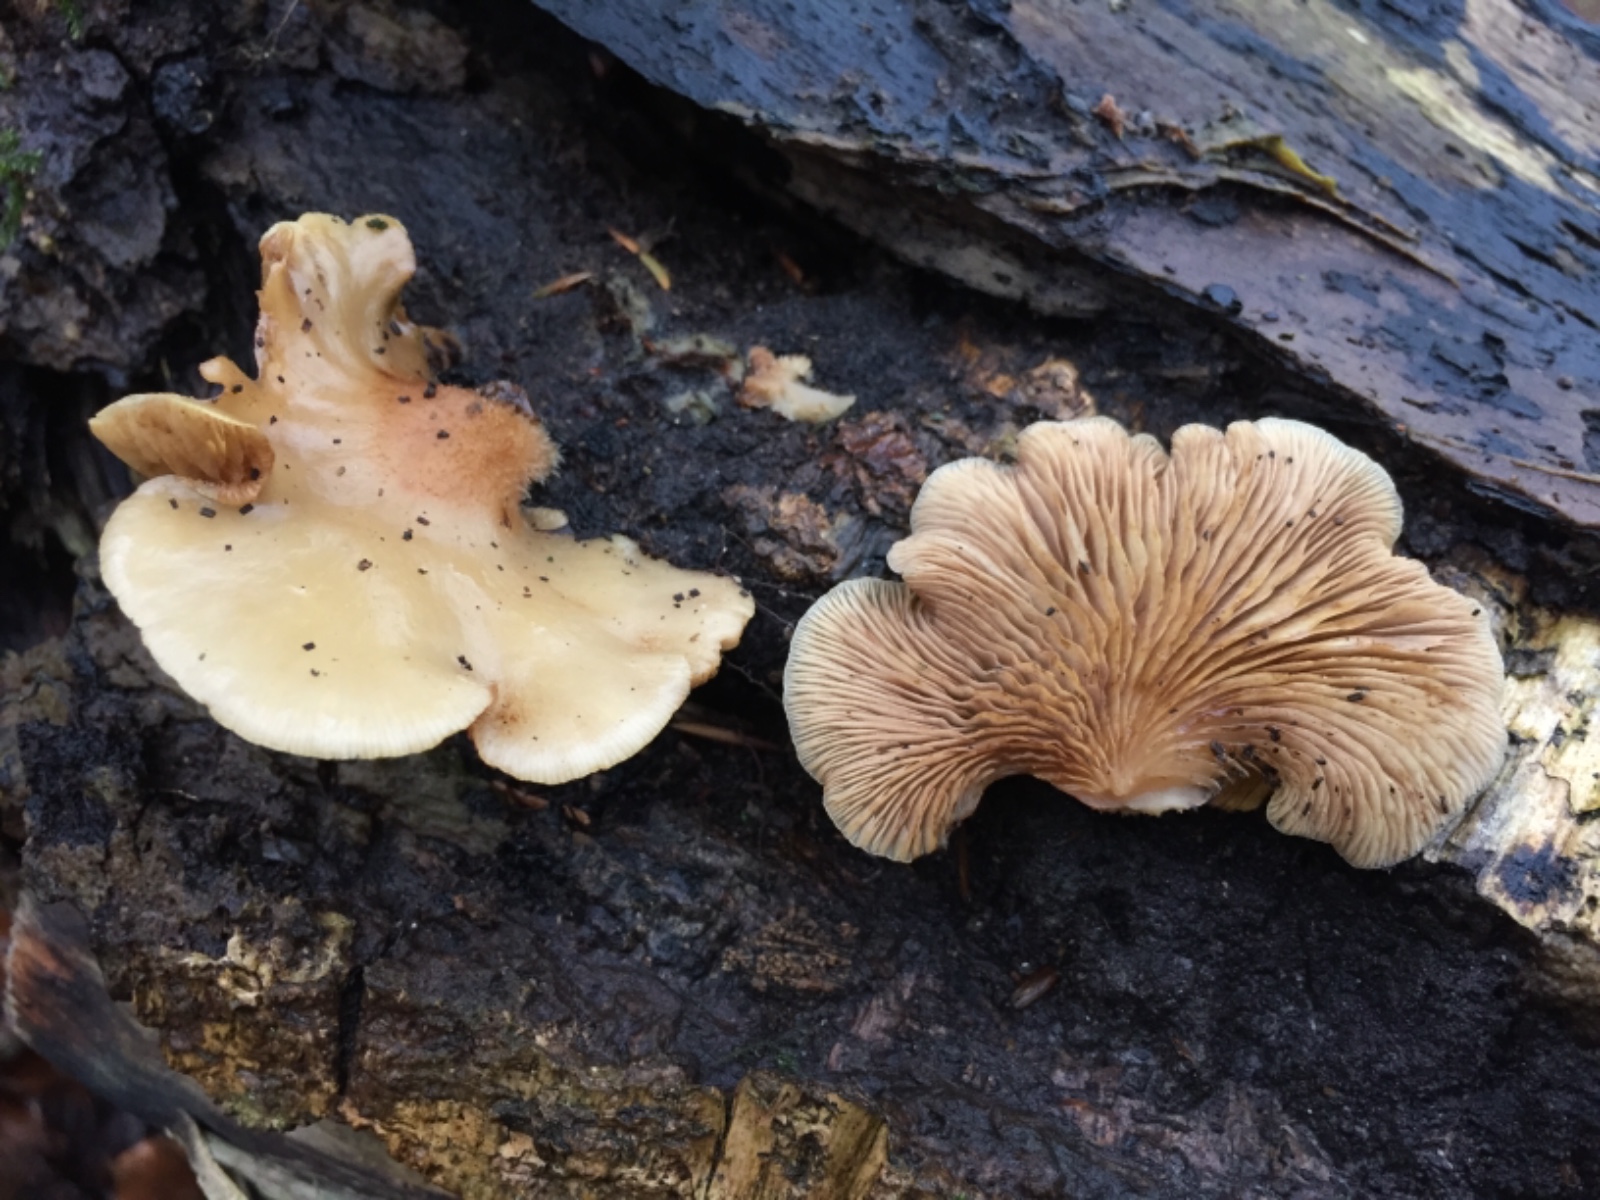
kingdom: Fungi
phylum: Basidiomycota
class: Agaricomycetes
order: Agaricales
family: Crepidotaceae
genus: Crepidotus
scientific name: Crepidotus mollis
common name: blød muslingesvamp
